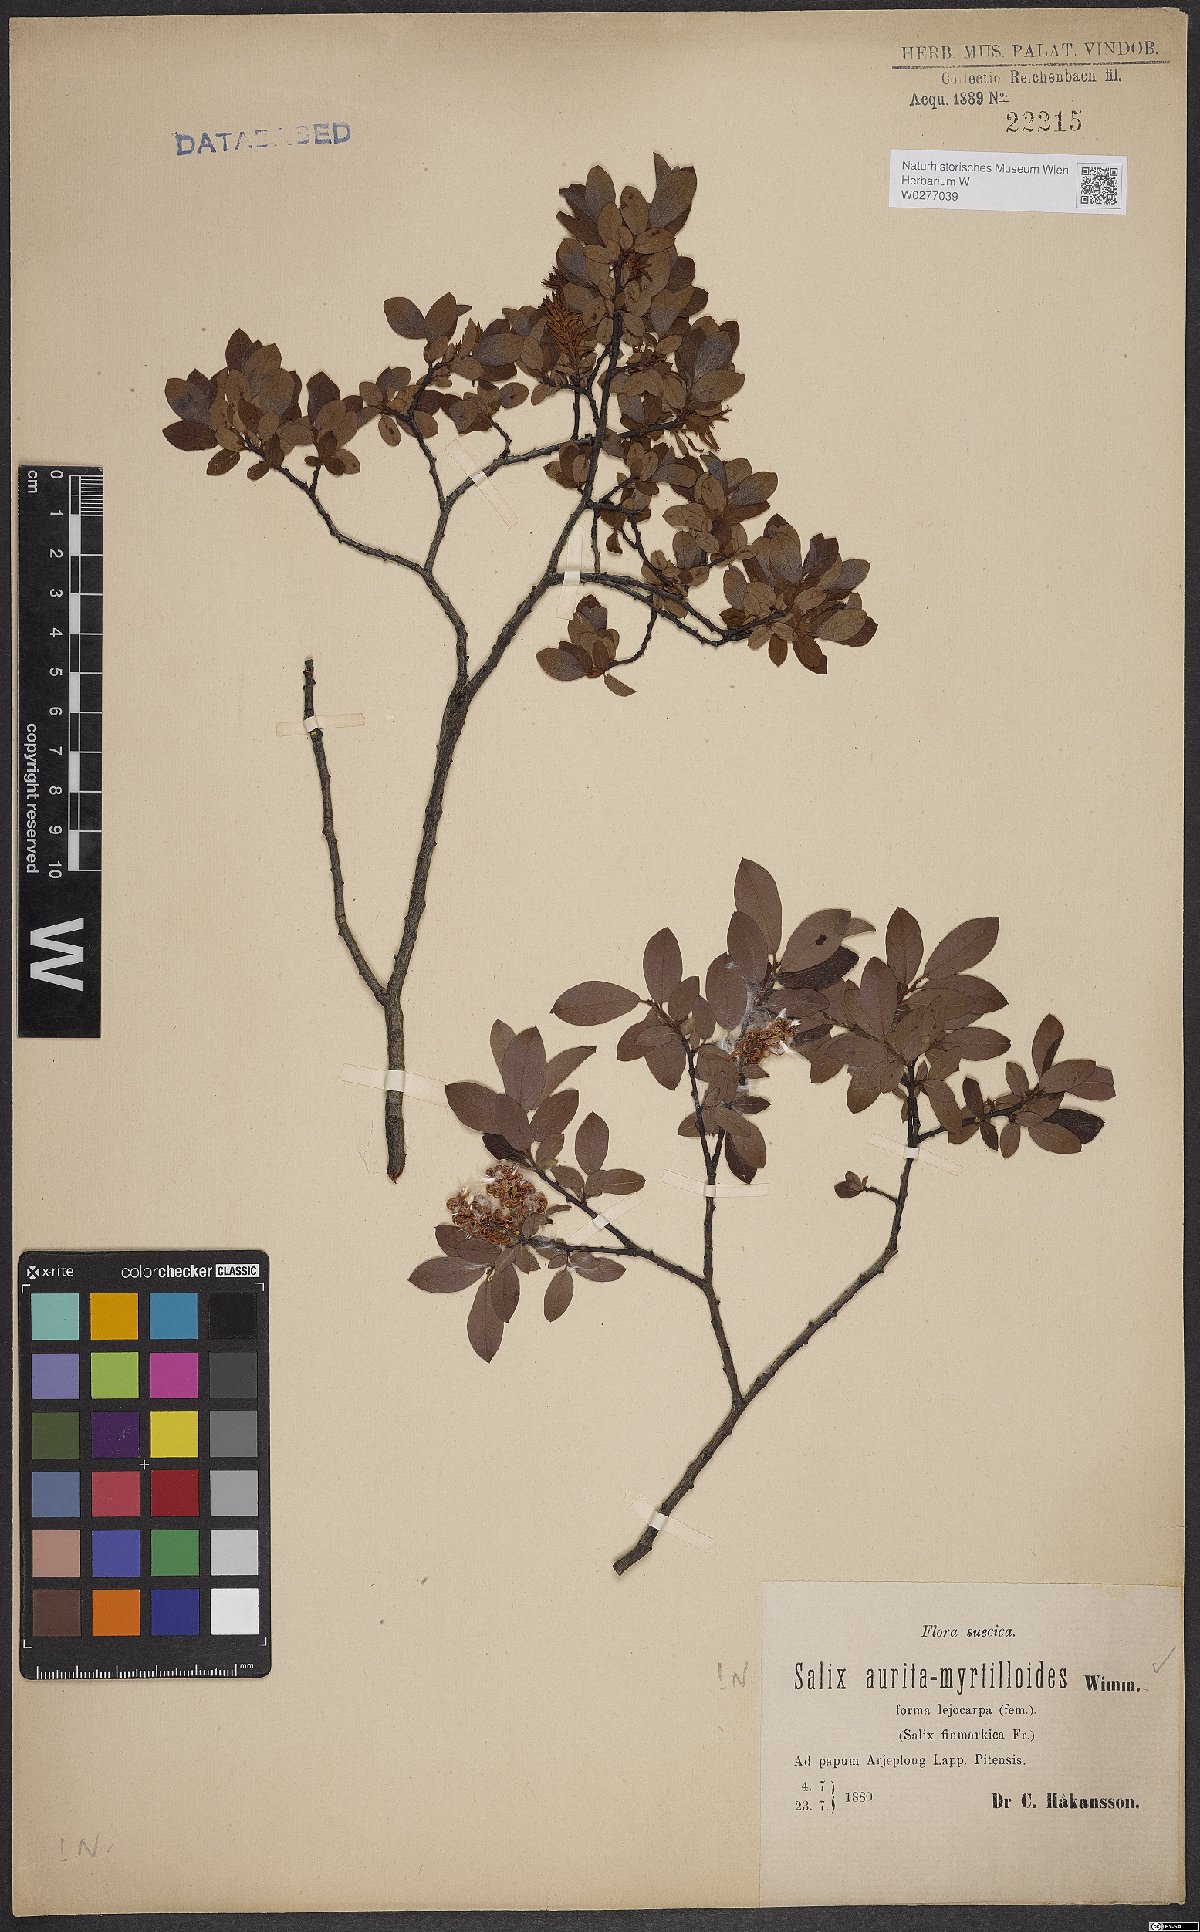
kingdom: Plantae
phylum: Tracheophyta
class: Magnoliopsida
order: Malpighiales
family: Salicaceae
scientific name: Salicaceae
